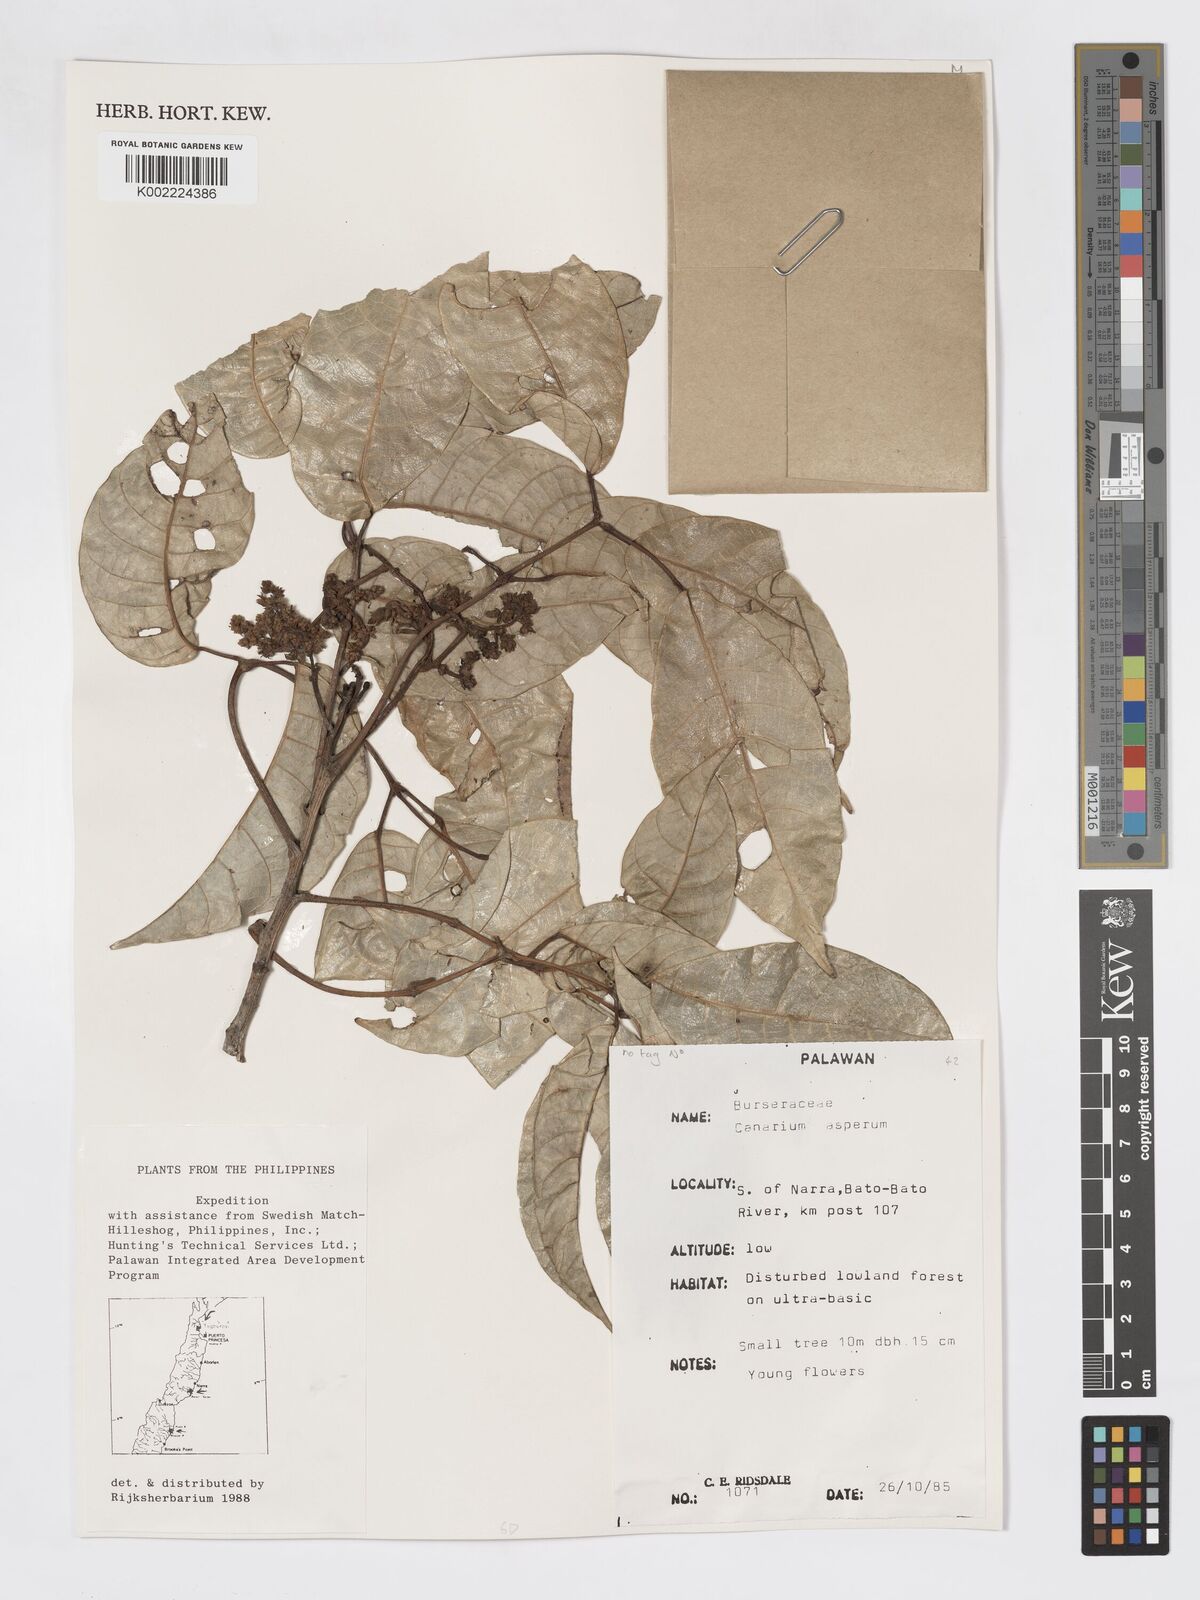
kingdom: Plantae
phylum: Tracheophyta
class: Magnoliopsida
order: Sapindales
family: Burseraceae
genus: Canarium
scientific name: Canarium asperum
